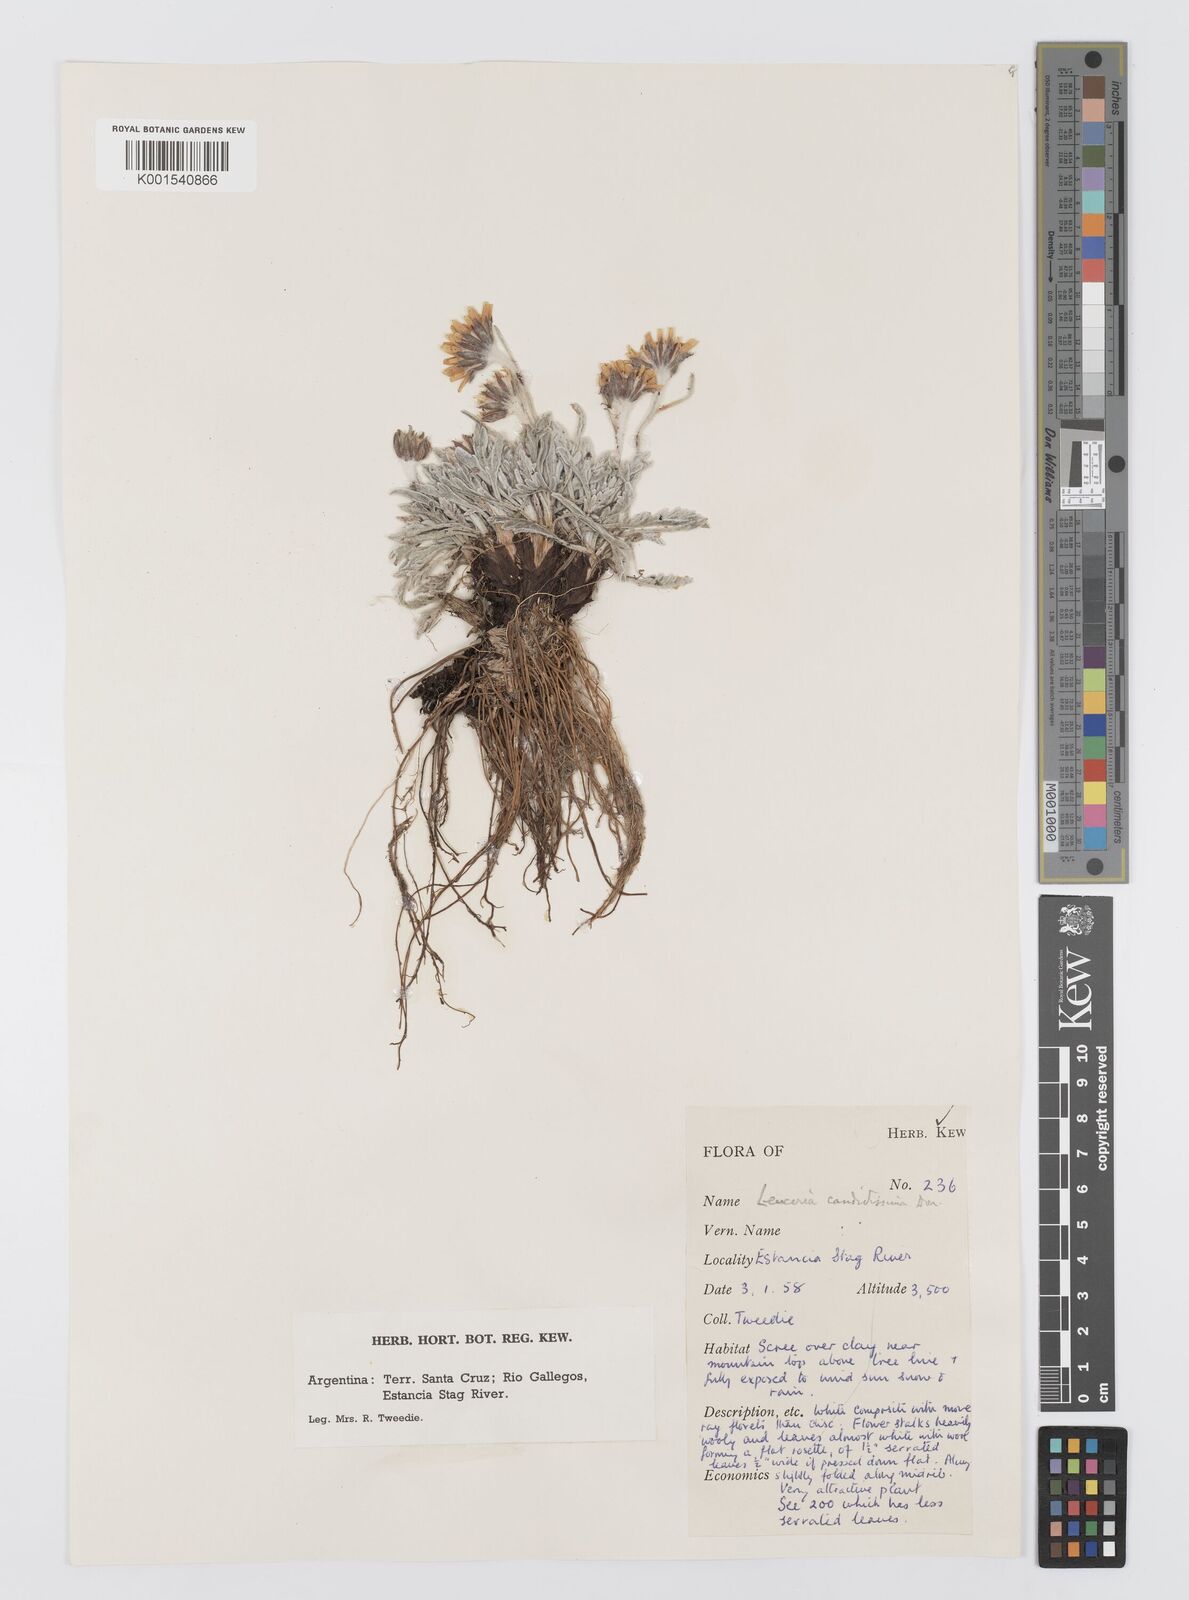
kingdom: Plantae
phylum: Tracheophyta
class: Magnoliopsida
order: Asterales
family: Asteraceae
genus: Leucheria
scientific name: Leucheria candidissima
